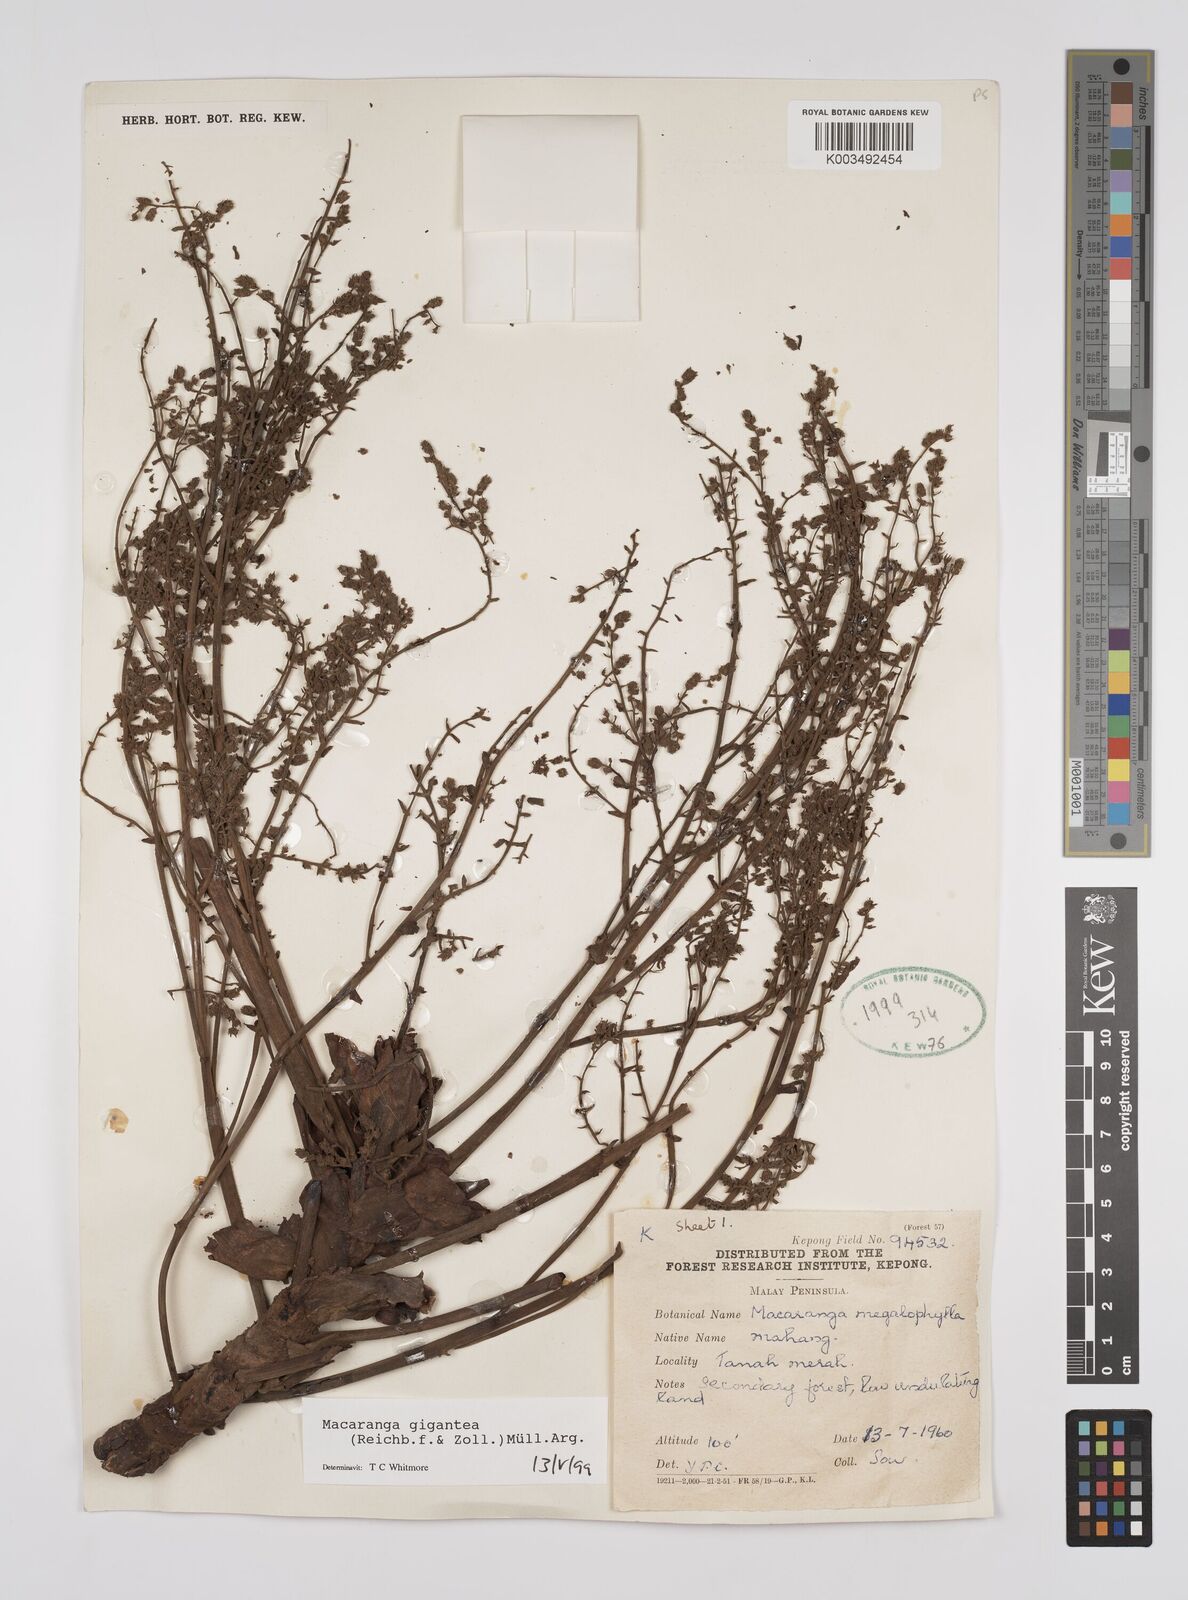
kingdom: Plantae
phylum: Tracheophyta
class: Magnoliopsida
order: Malpighiales
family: Euphorbiaceae
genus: Macaranga
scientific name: Macaranga gigantea
